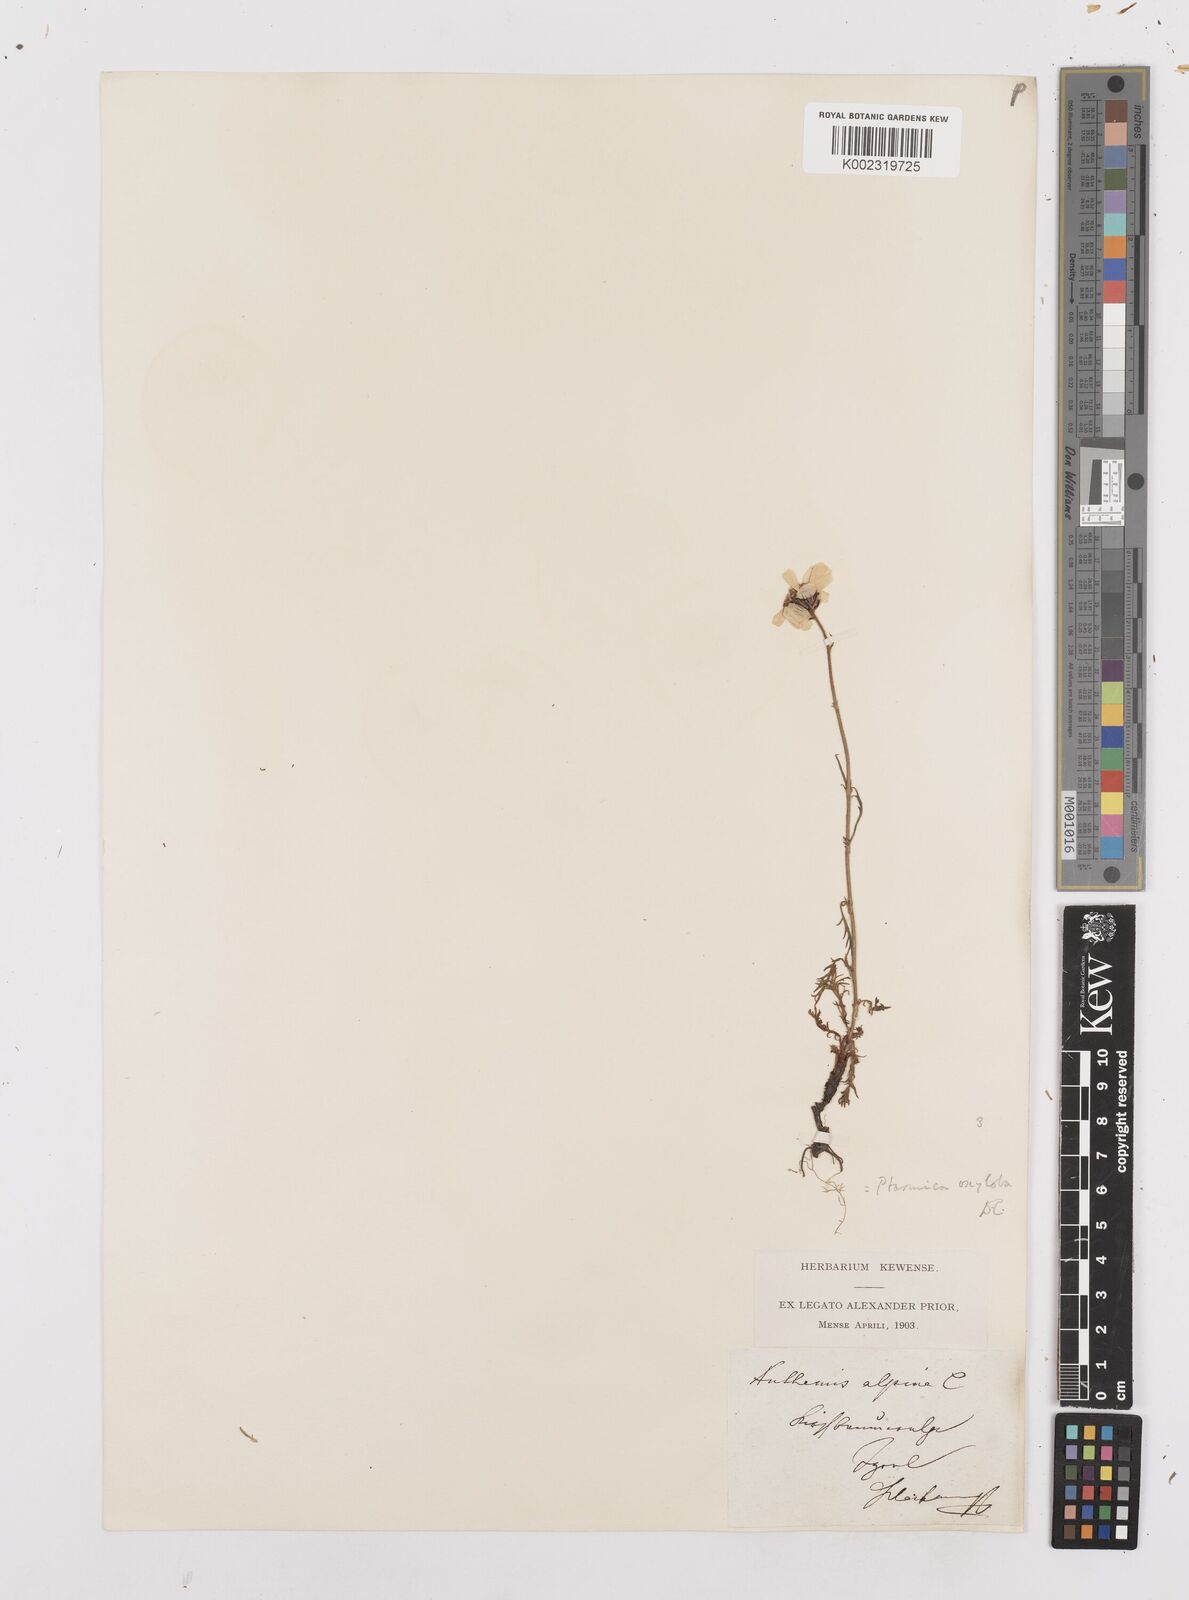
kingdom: Plantae
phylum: Tracheophyta
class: Magnoliopsida
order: Asterales
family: Asteraceae
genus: Achillea
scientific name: Achillea oxyloba
